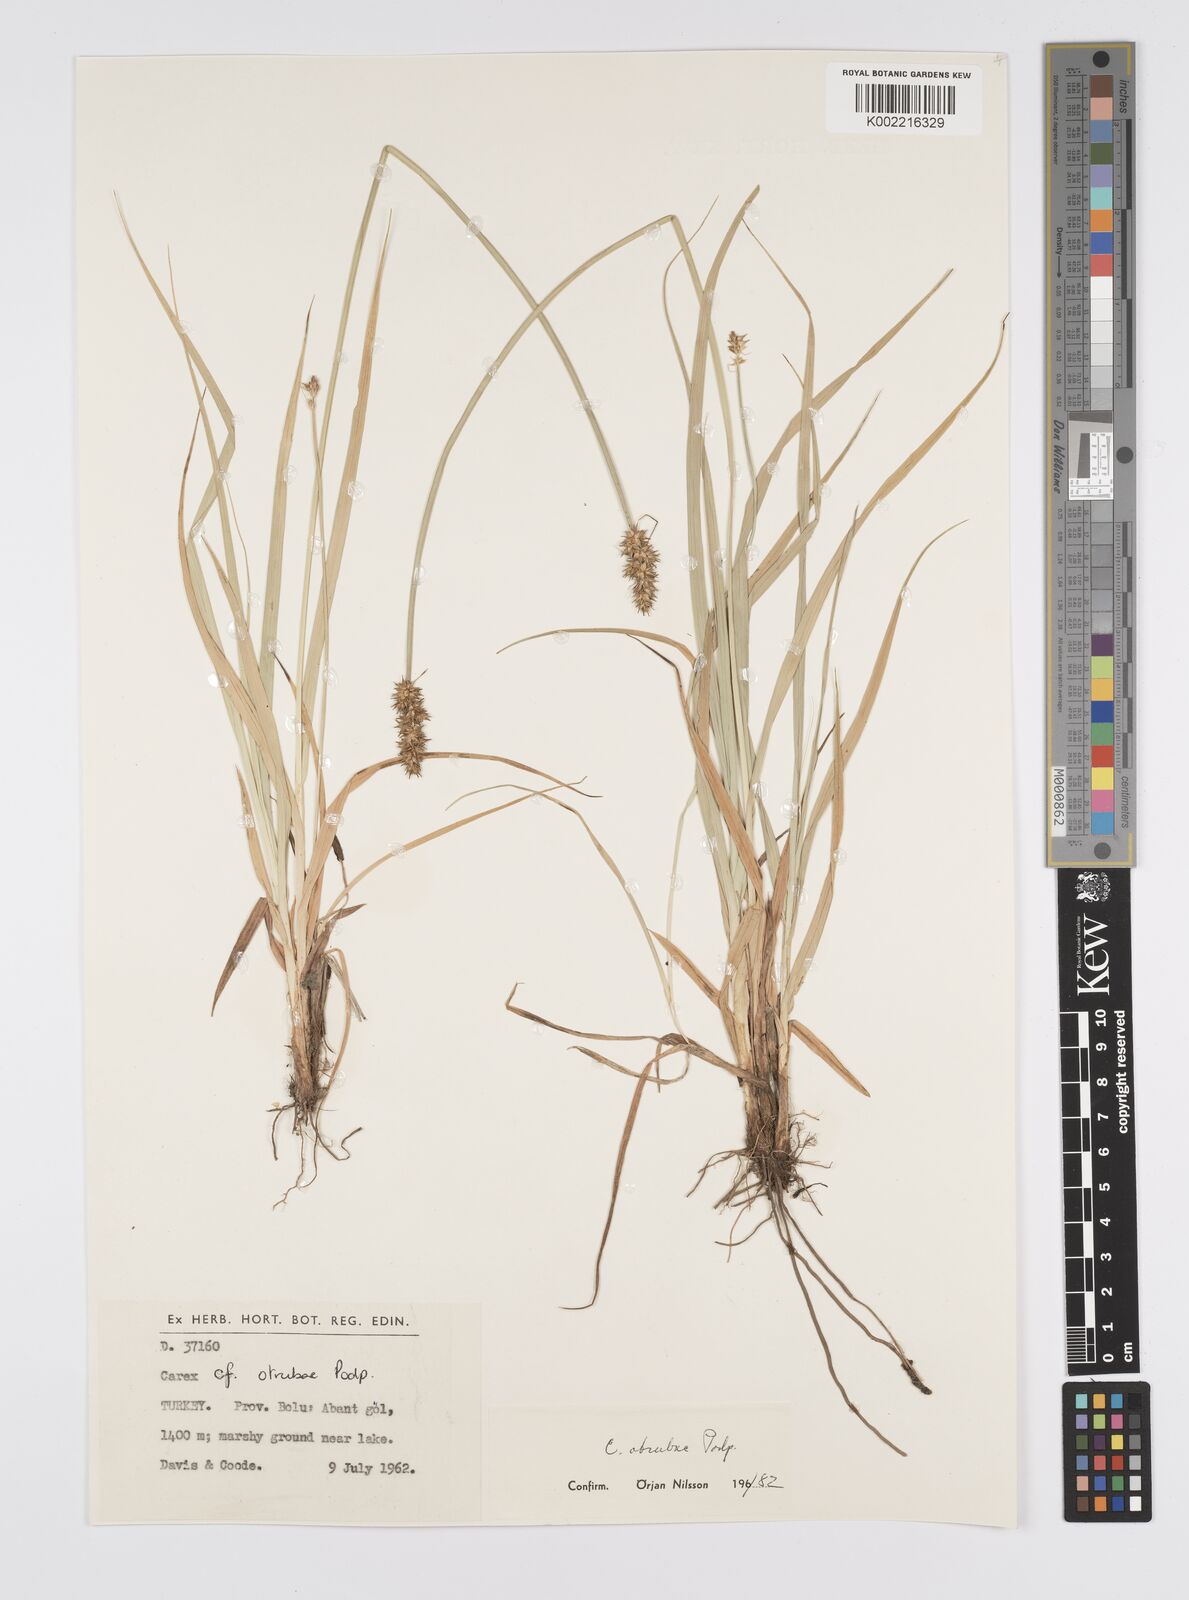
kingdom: Plantae
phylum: Tracheophyta
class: Liliopsida
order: Poales
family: Cyperaceae
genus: Carex
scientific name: Carex otrubae
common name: False fox-sedge
